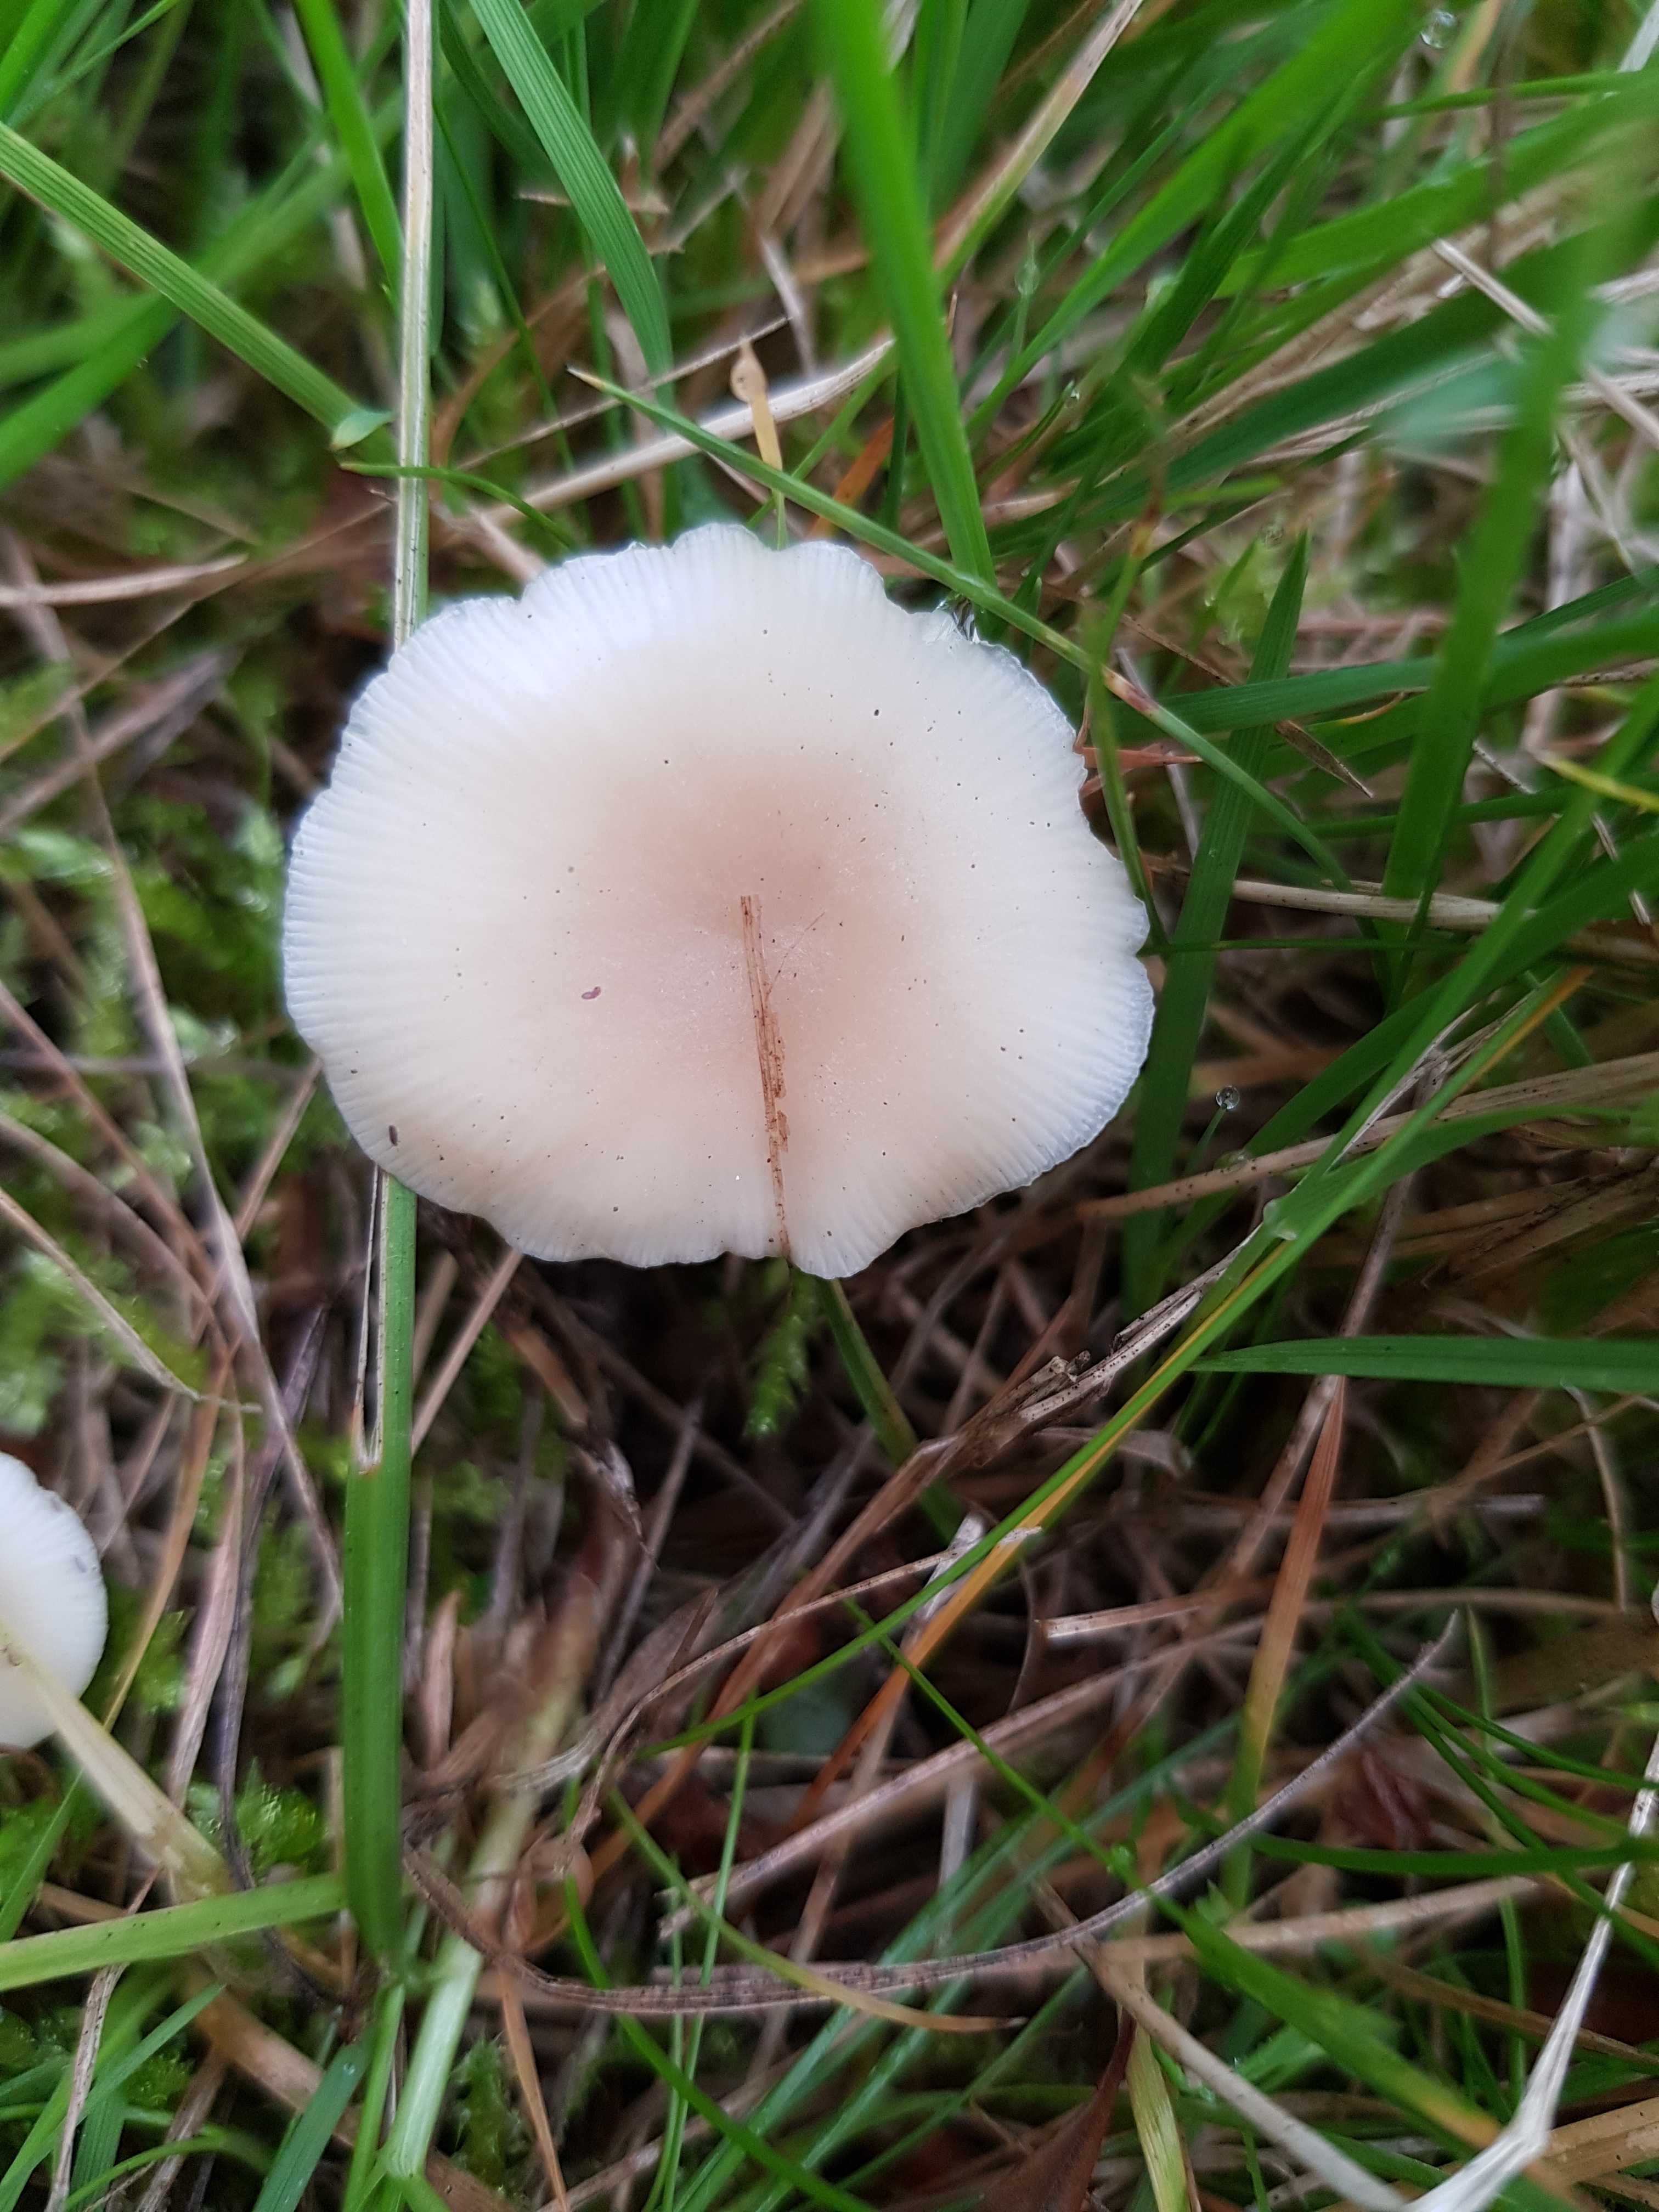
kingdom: Fungi
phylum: Basidiomycota
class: Agaricomycetes
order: Agaricales
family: Tricholomataceae
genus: Clitocybe
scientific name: Clitocybe
